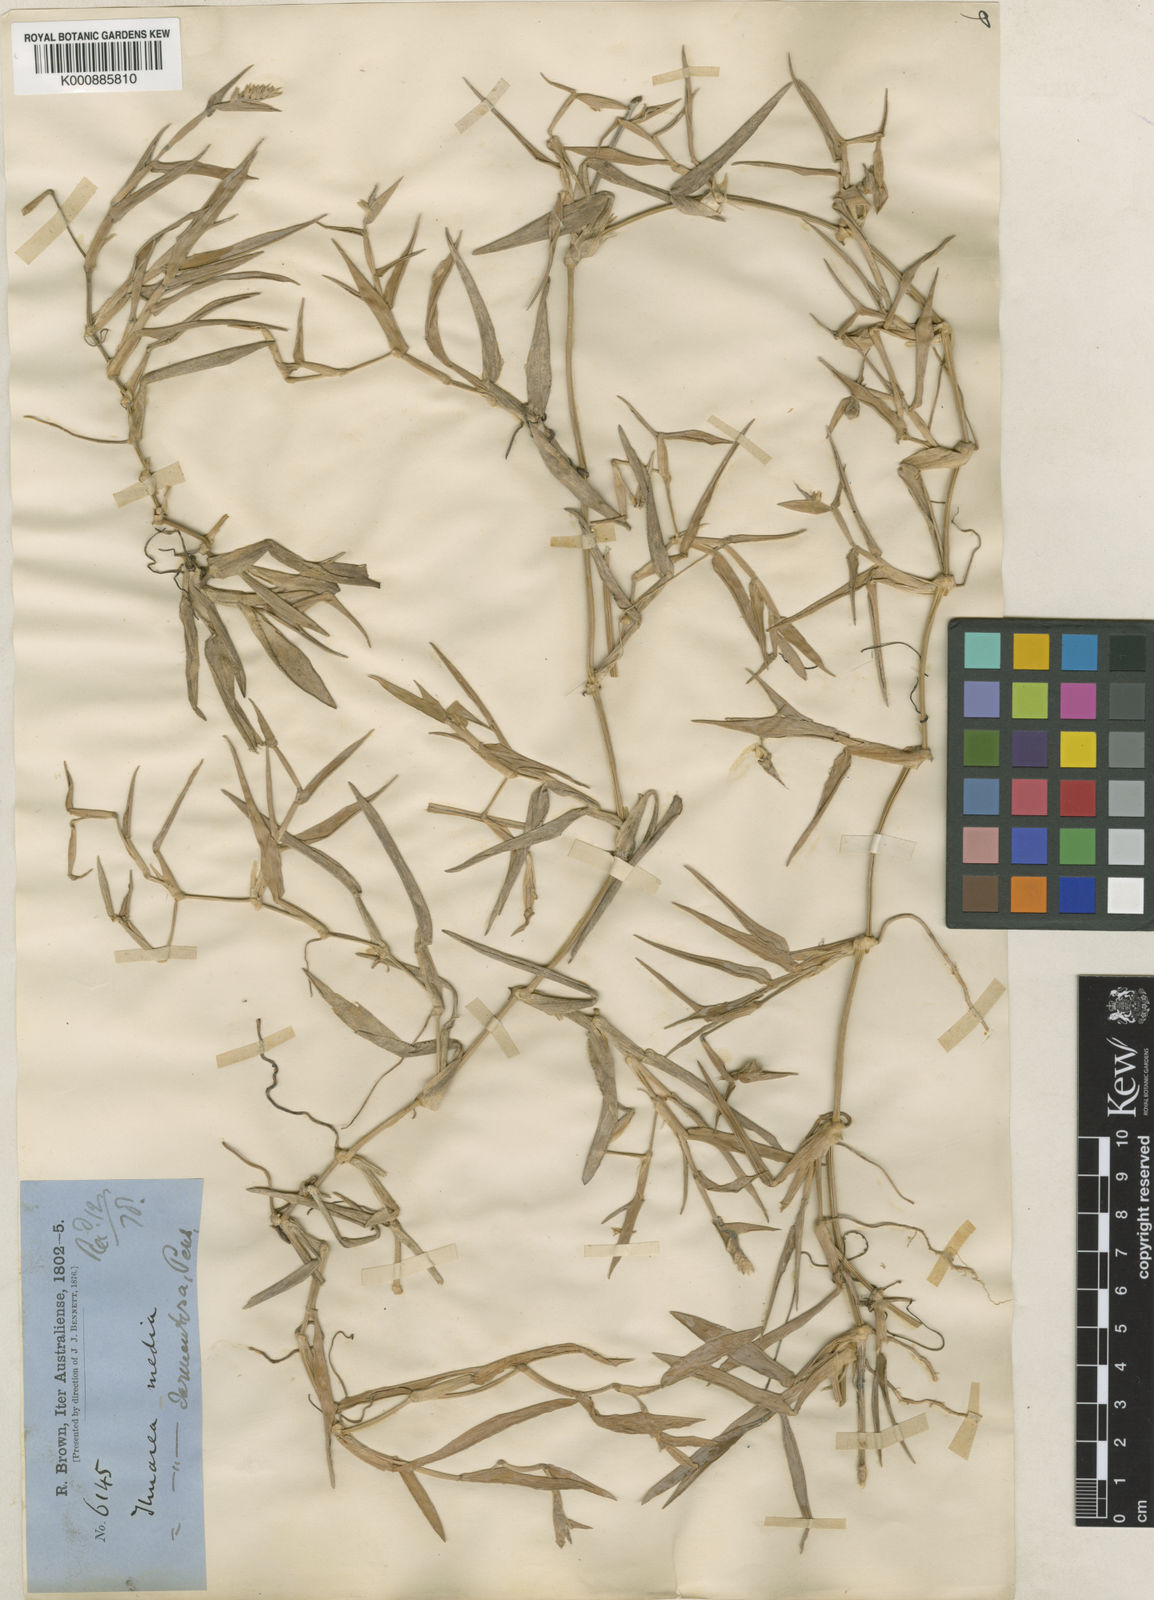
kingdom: Plantae
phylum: Tracheophyta
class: Liliopsida
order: Poales
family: Poaceae
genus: Thuarea
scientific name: Thuarea involuta
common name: Tropical beach grass
